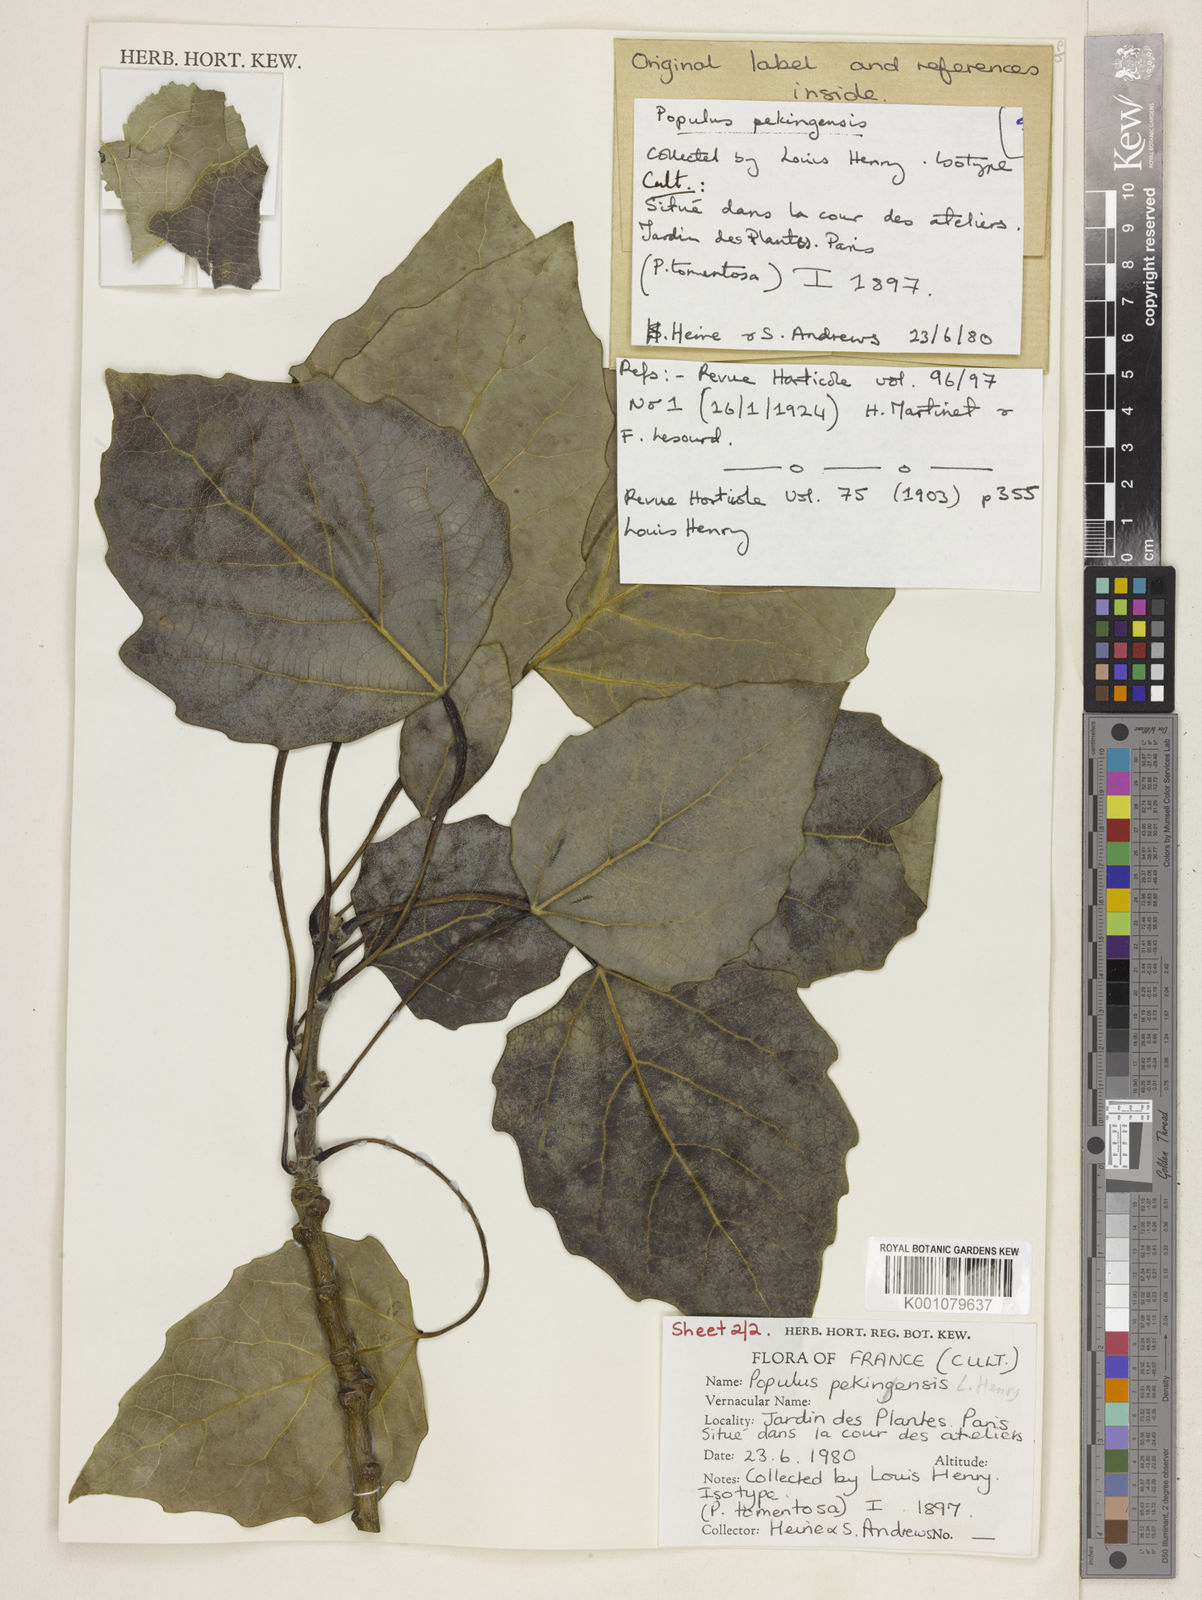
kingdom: Plantae
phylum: Tracheophyta
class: Magnoliopsida
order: Malpighiales
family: Salicaceae
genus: Populus
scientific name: Populus
